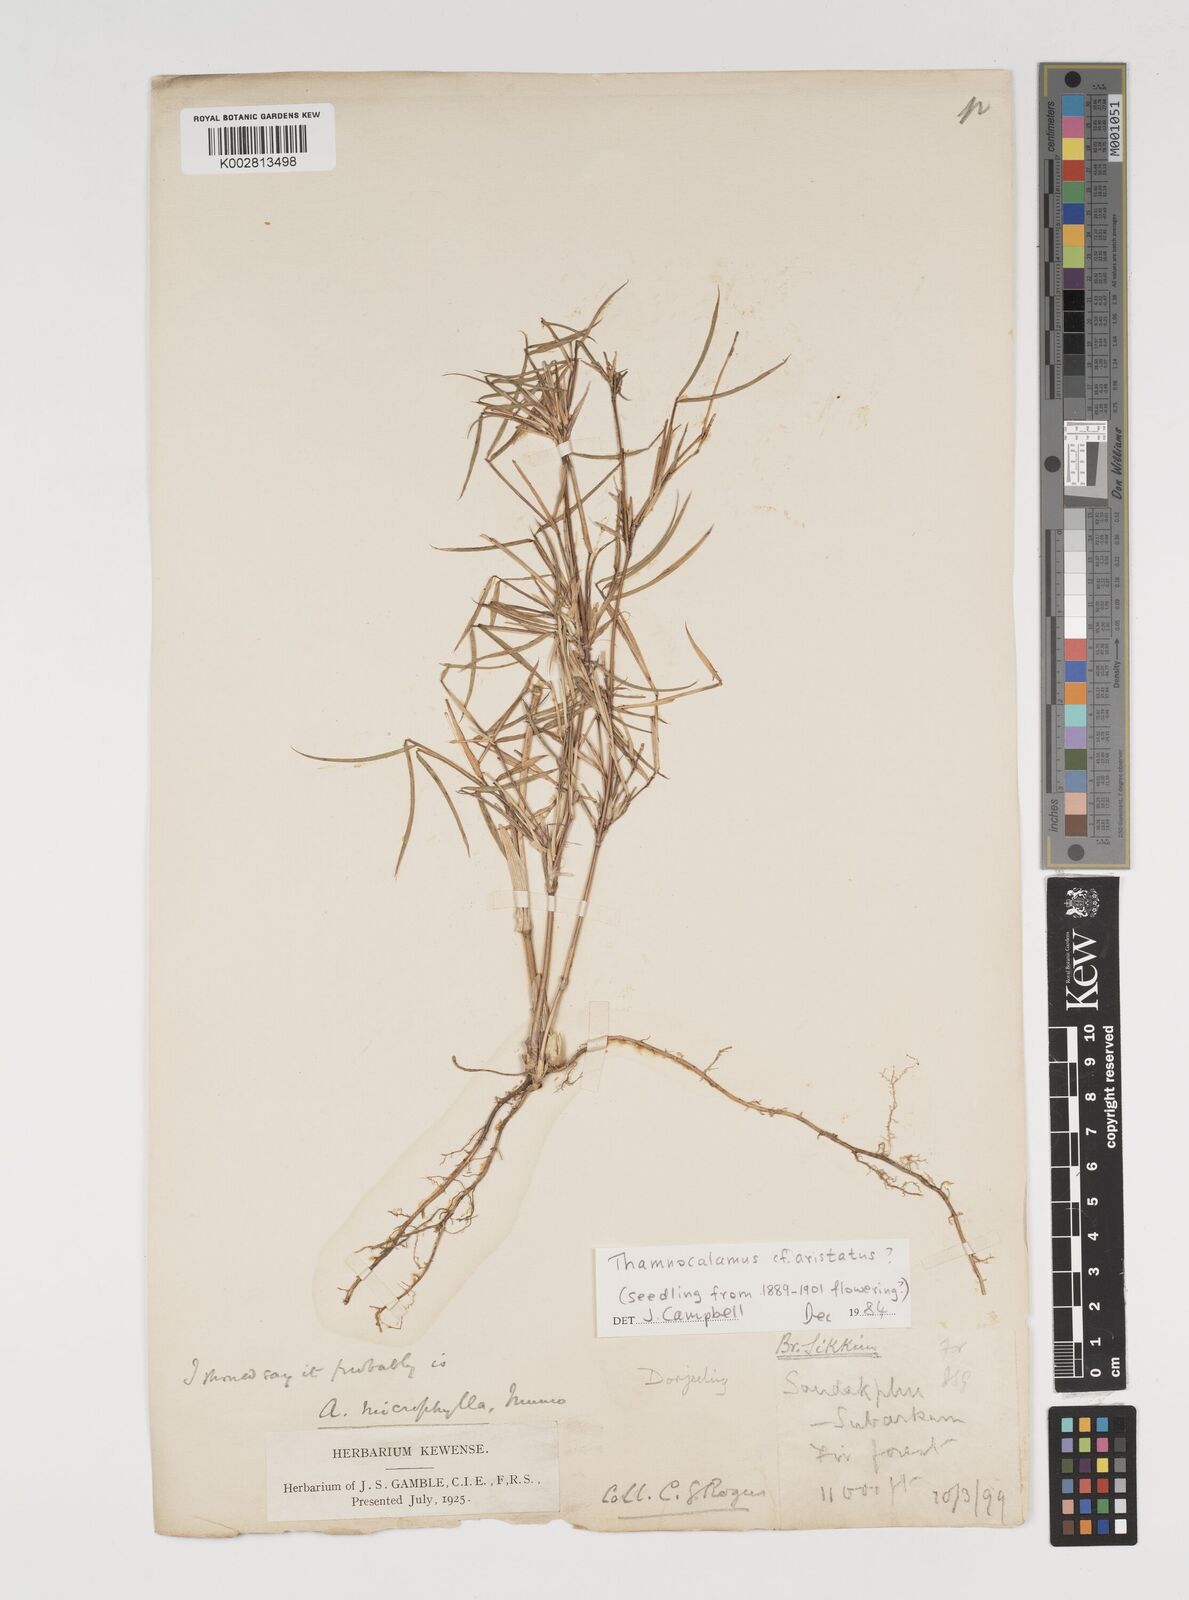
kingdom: Plantae
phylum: Tracheophyta
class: Liliopsida
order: Poales
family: Poaceae
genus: Thamnocalamus
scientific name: Thamnocalamus spathiflorus
